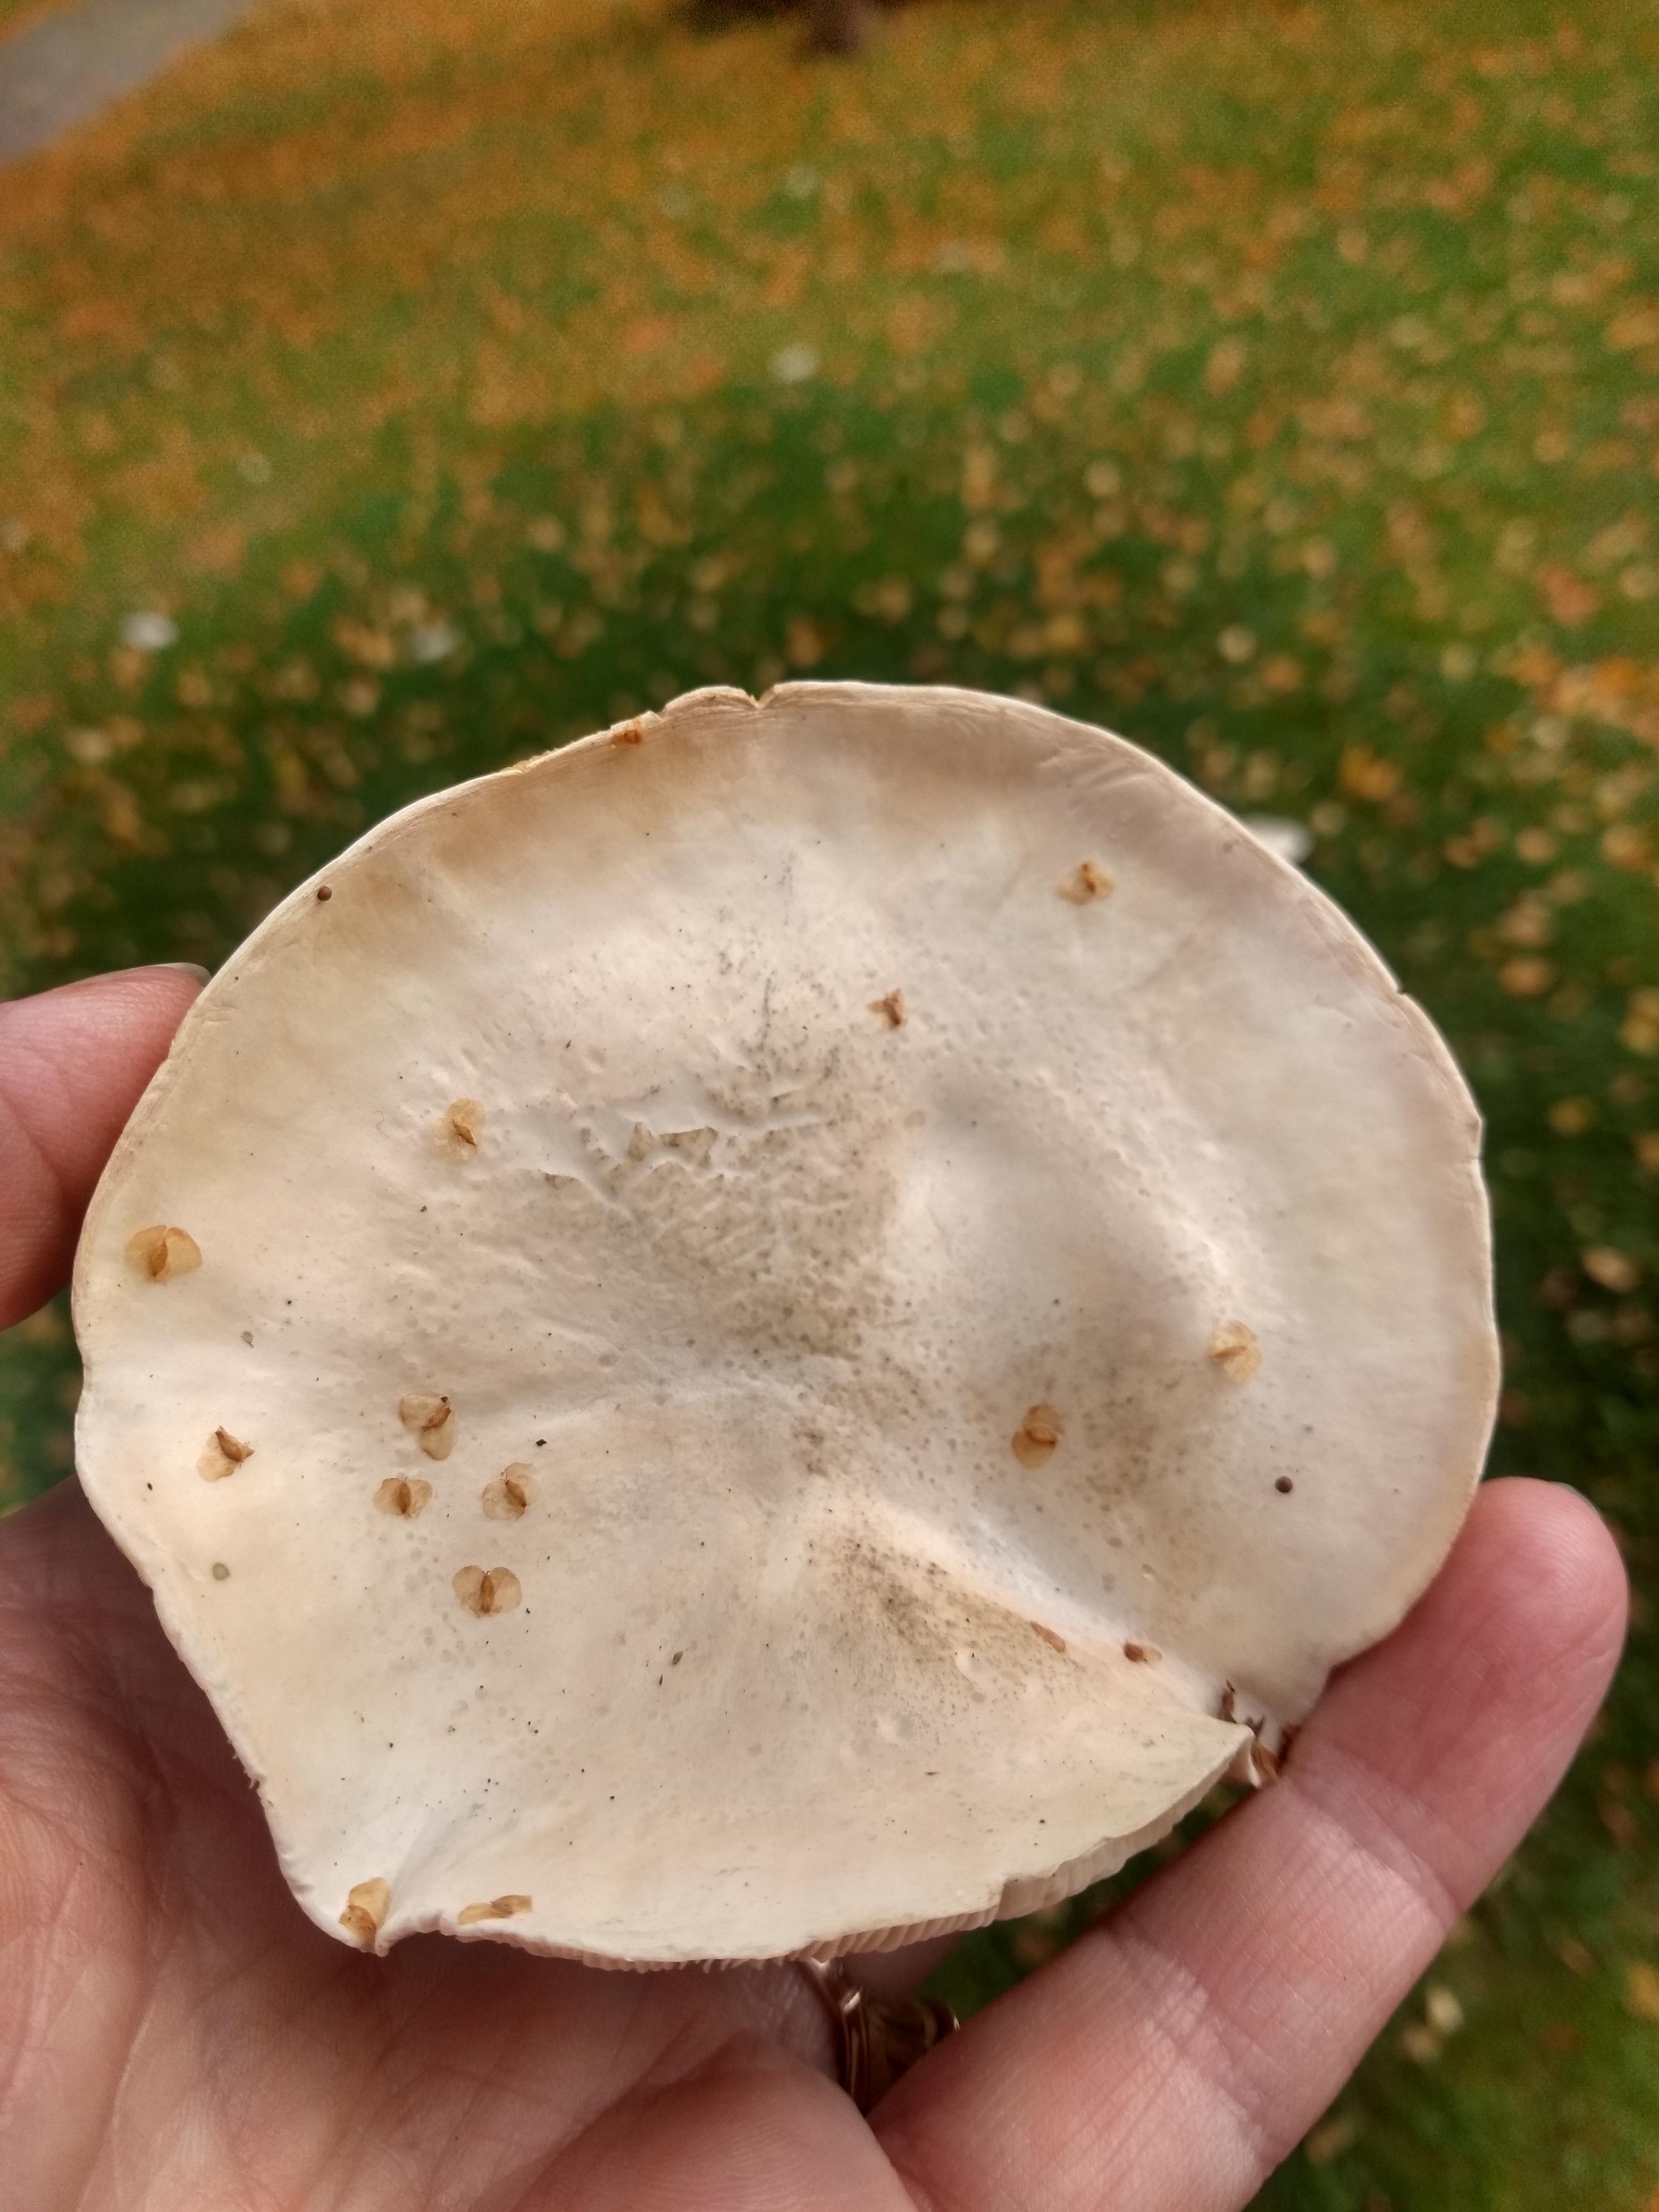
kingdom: Fungi
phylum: Basidiomycota
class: Agaricomycetes
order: Agaricales
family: Entolomataceae
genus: Clitopilus
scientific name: Clitopilus prunulus
